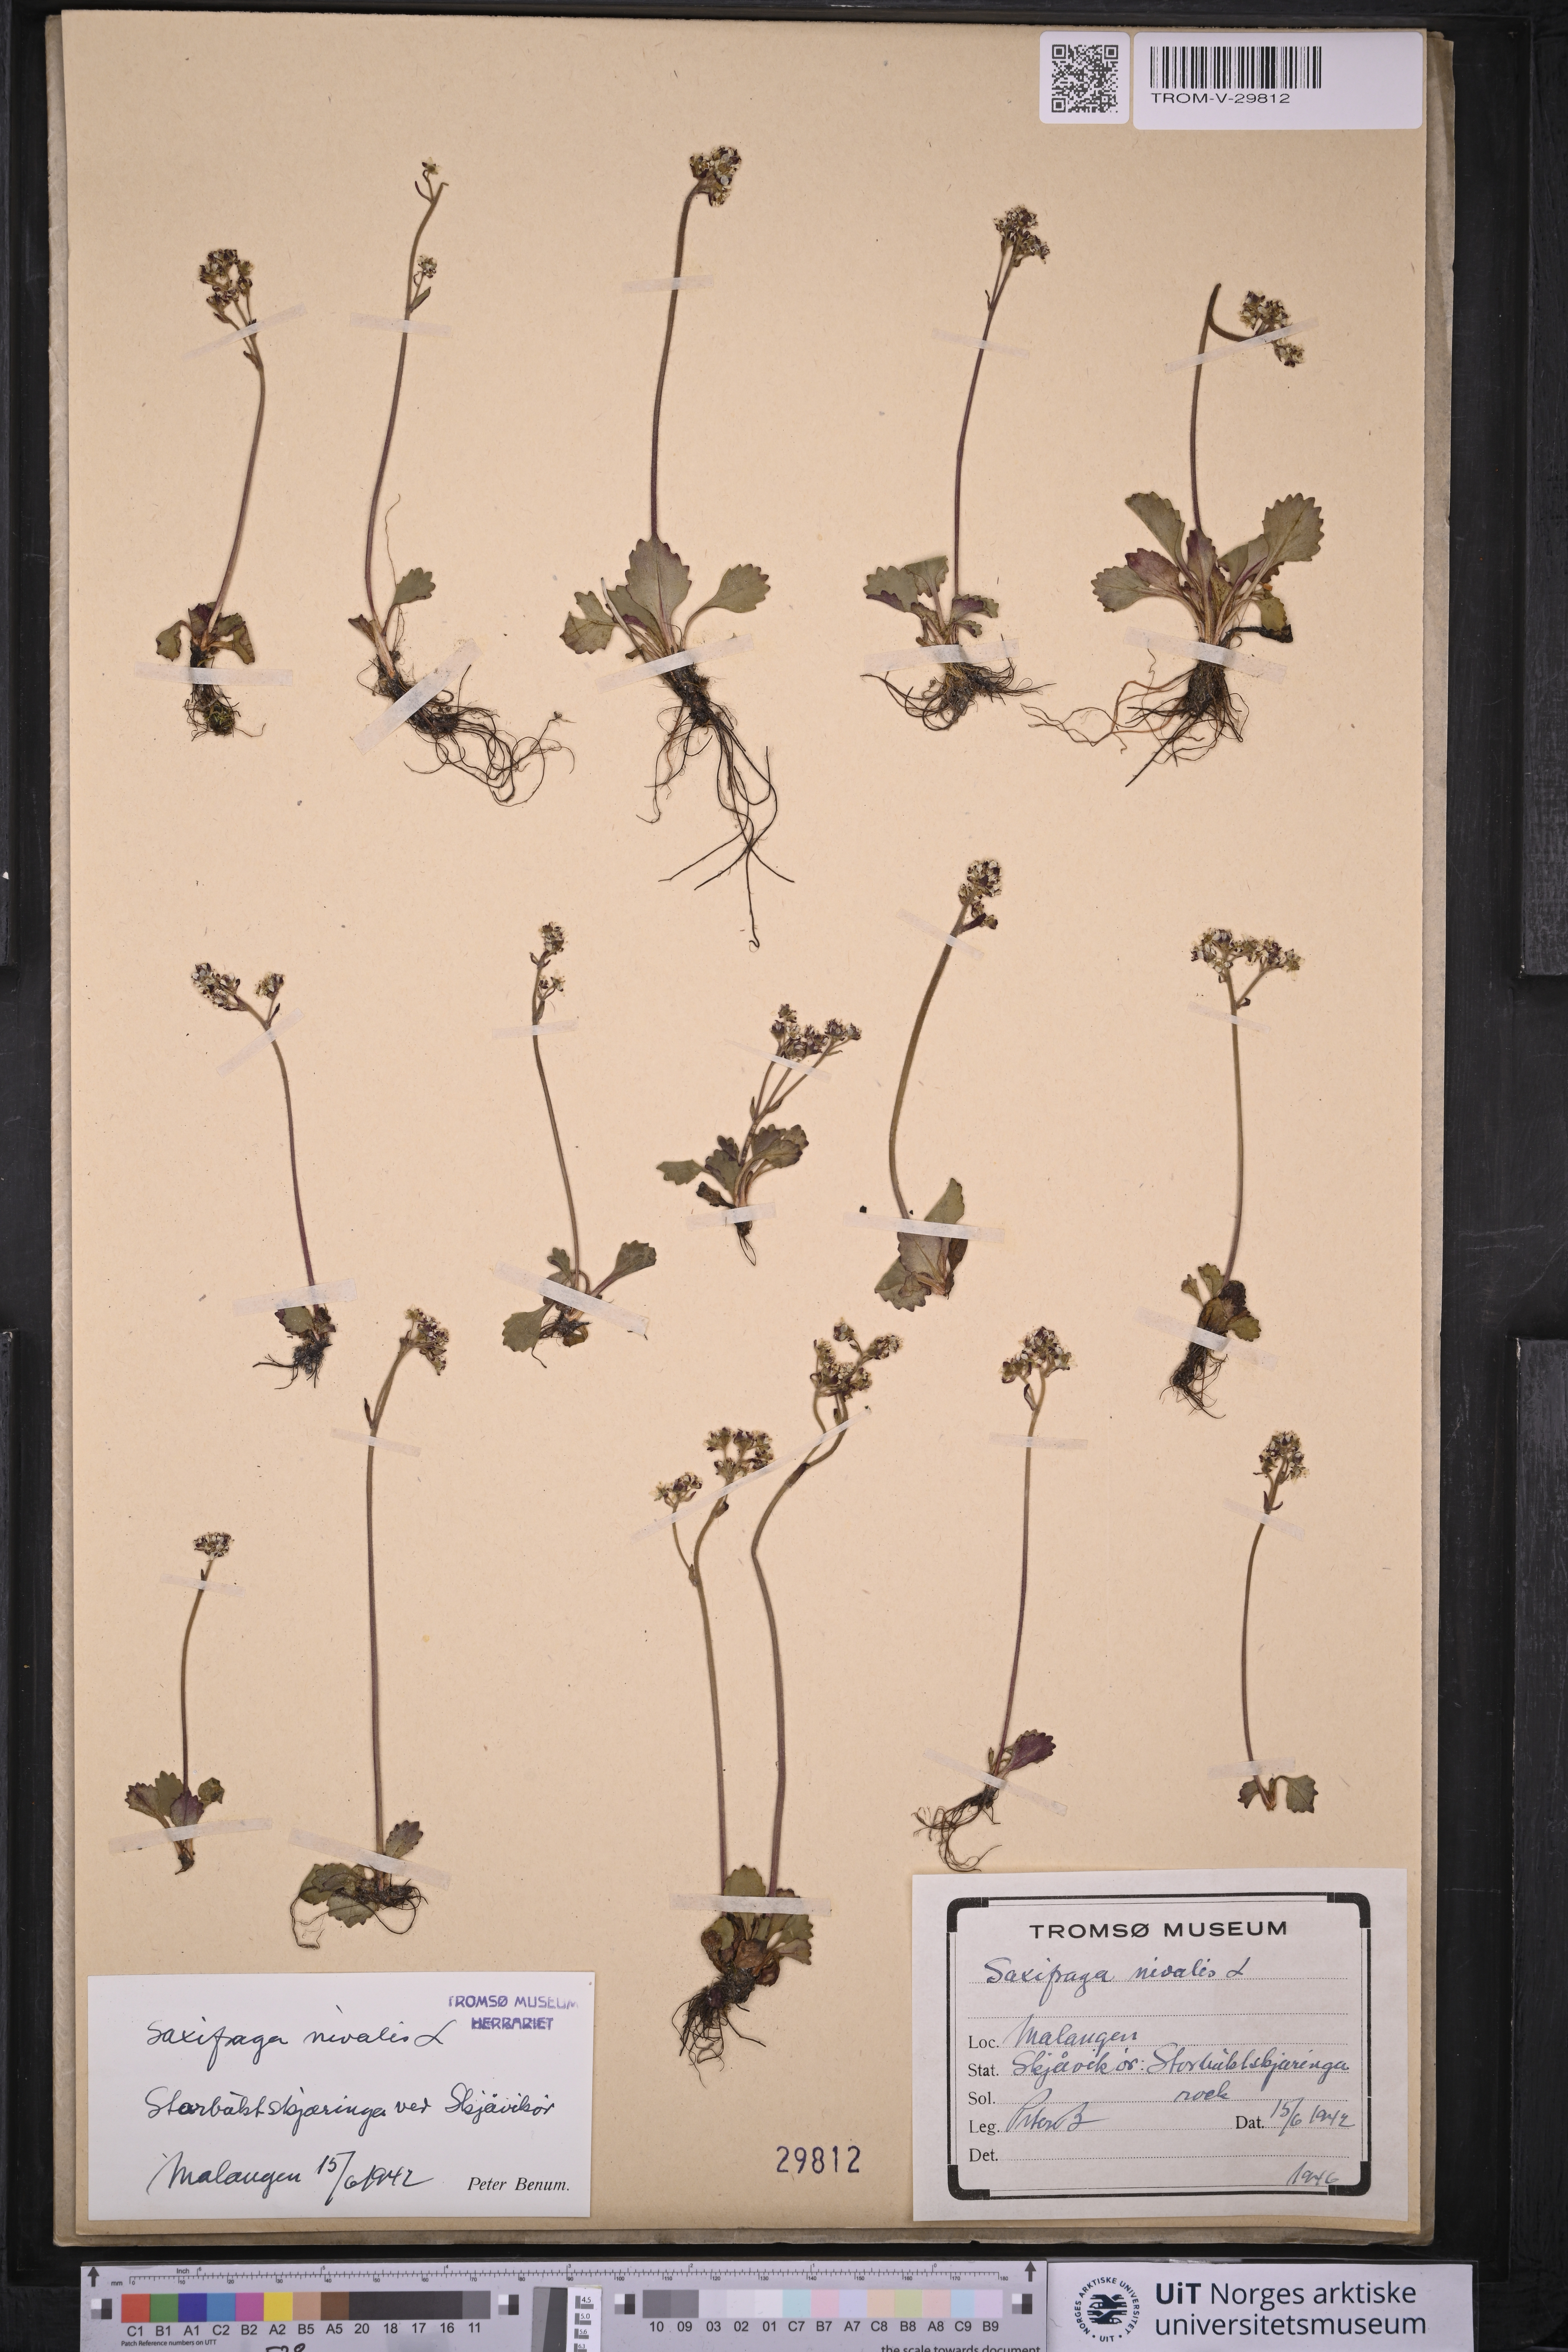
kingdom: Plantae
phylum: Tracheophyta
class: Magnoliopsida
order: Saxifragales
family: Saxifragaceae
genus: Micranthes
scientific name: Micranthes nivalis
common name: Alpine saxifrage
